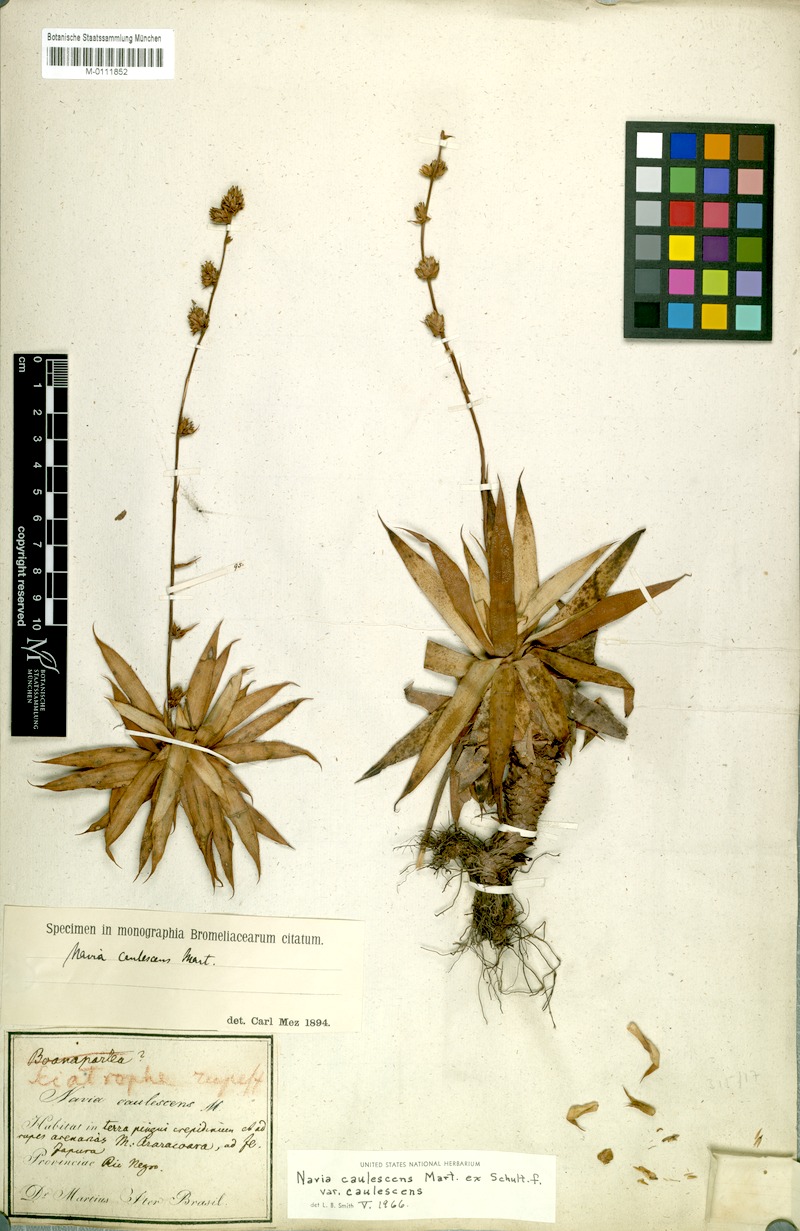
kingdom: Plantae
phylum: Tracheophyta
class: Liliopsida
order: Poales
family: Bromeliaceae
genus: Navia
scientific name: Navia caulescens
